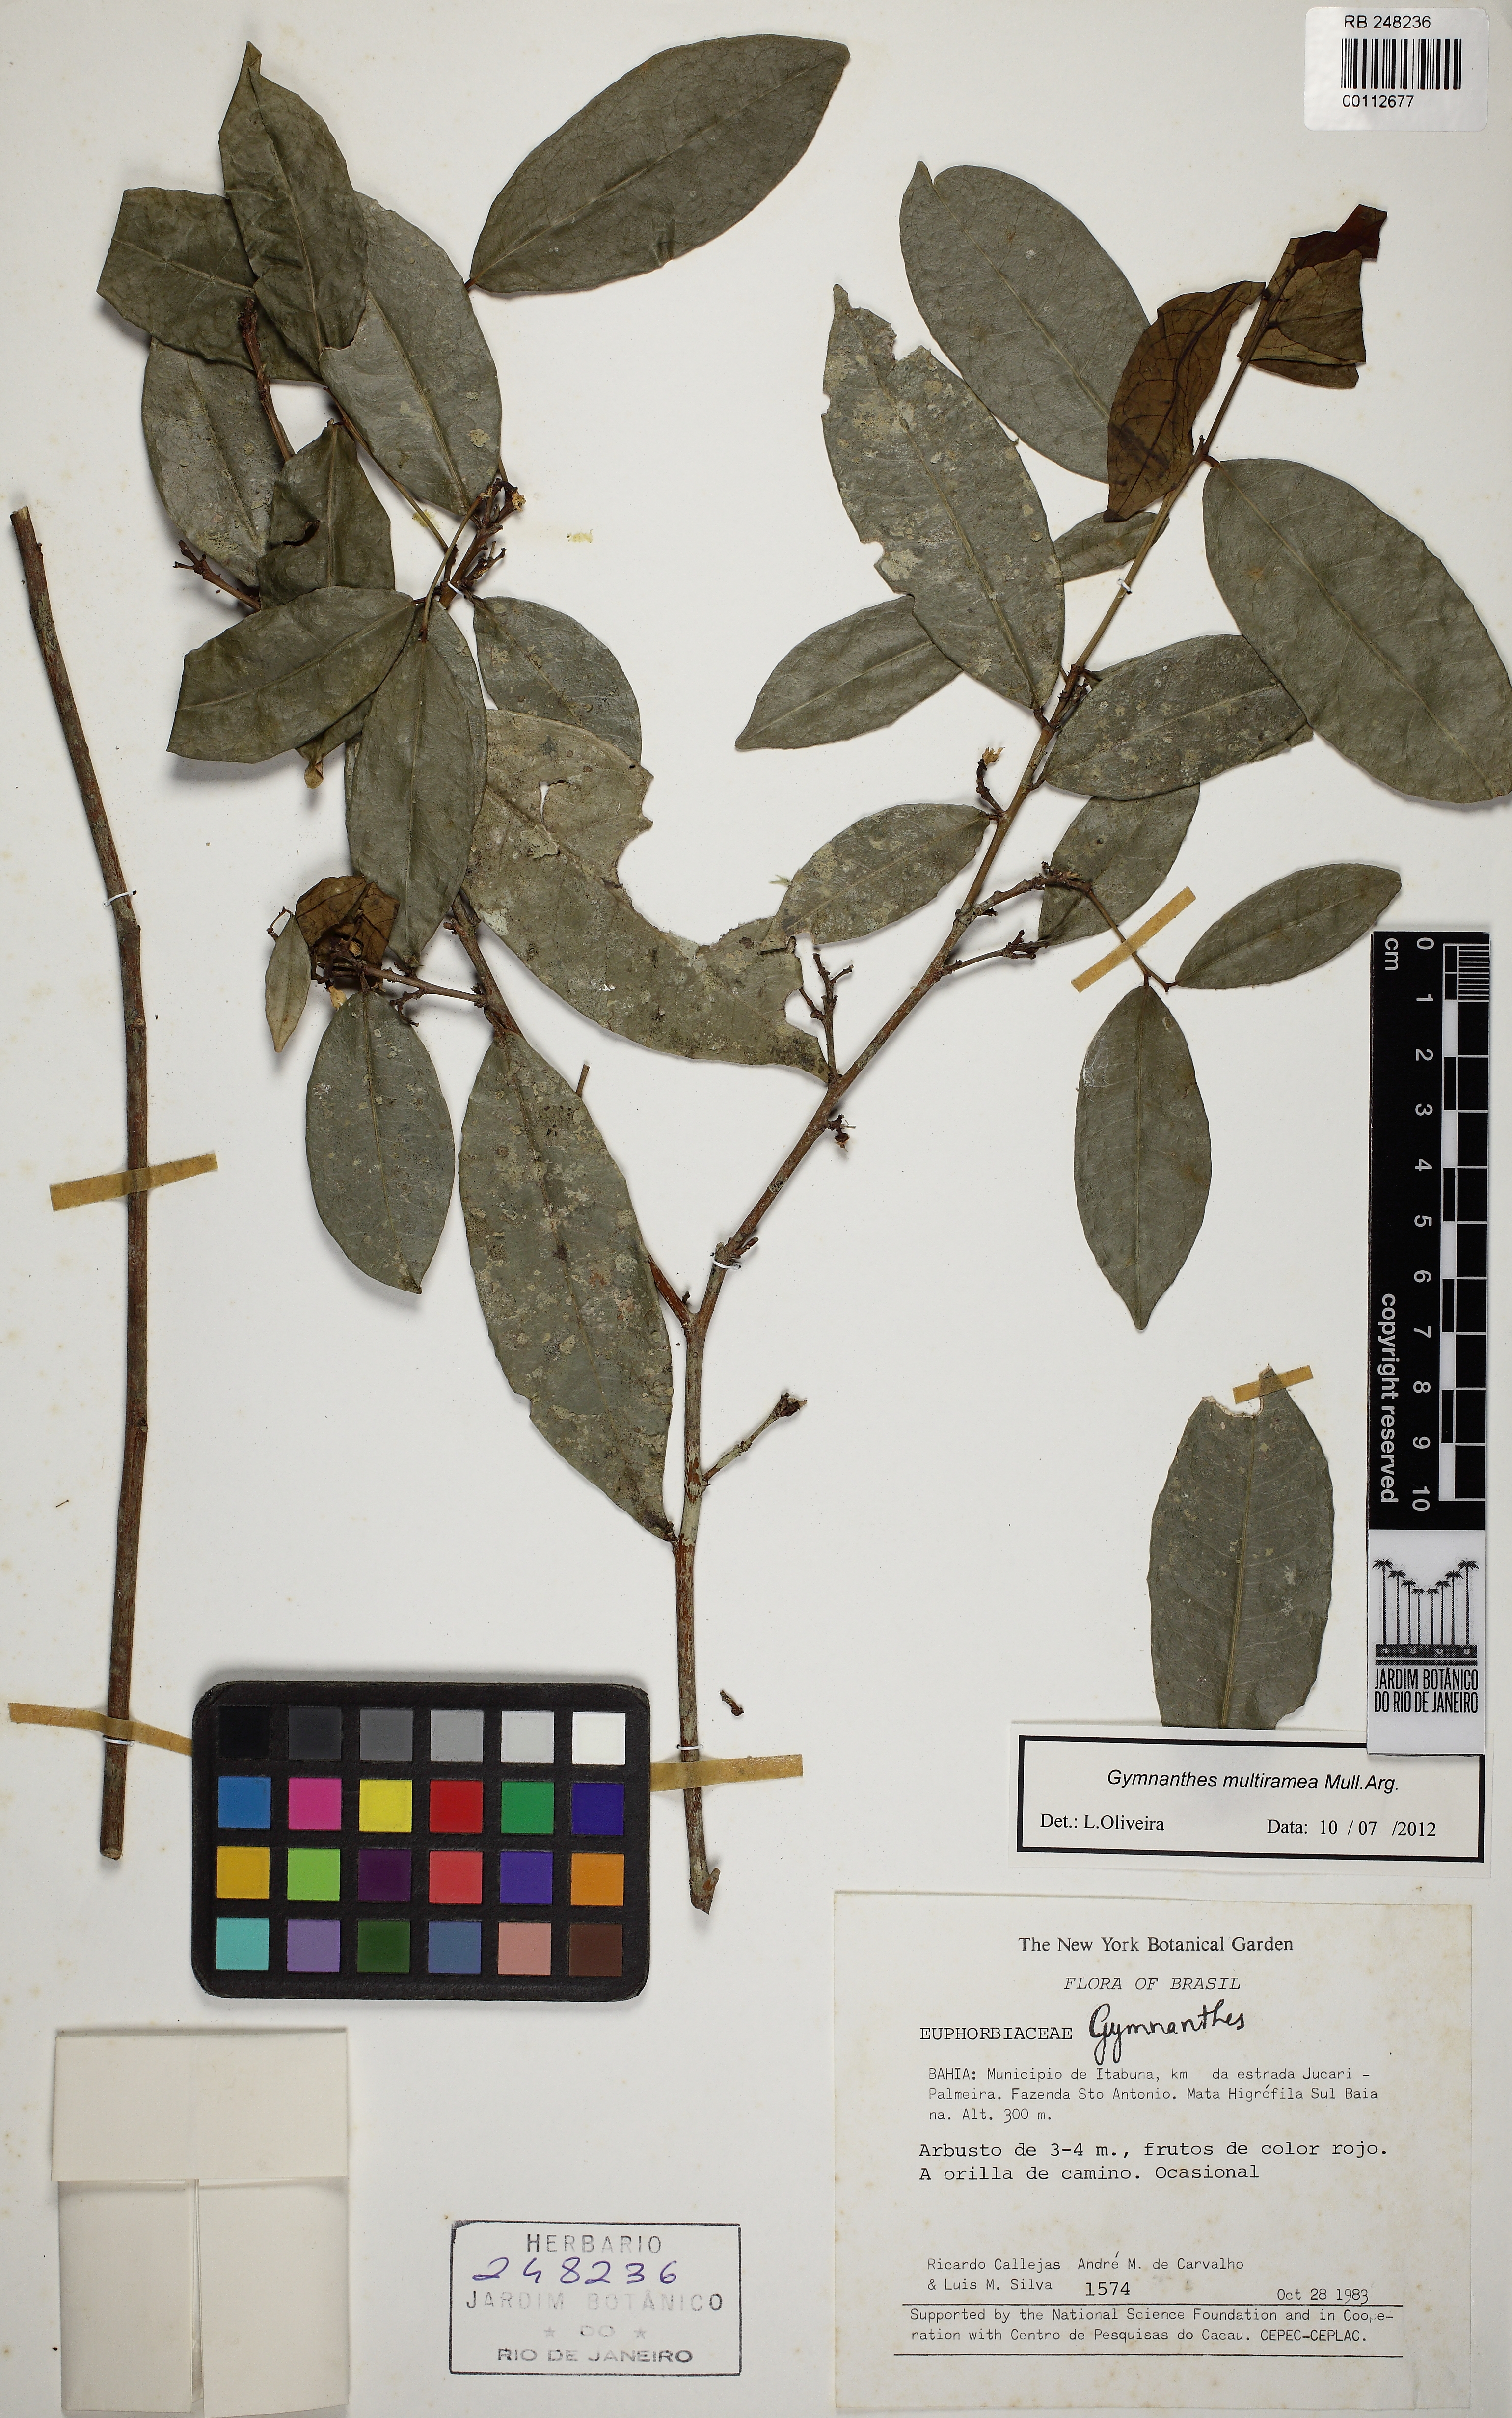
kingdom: Plantae
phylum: Tracheophyta
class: Magnoliopsida
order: Malpighiales
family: Euphorbiaceae
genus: Gymnanthes
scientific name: Gymnanthes glabrata
